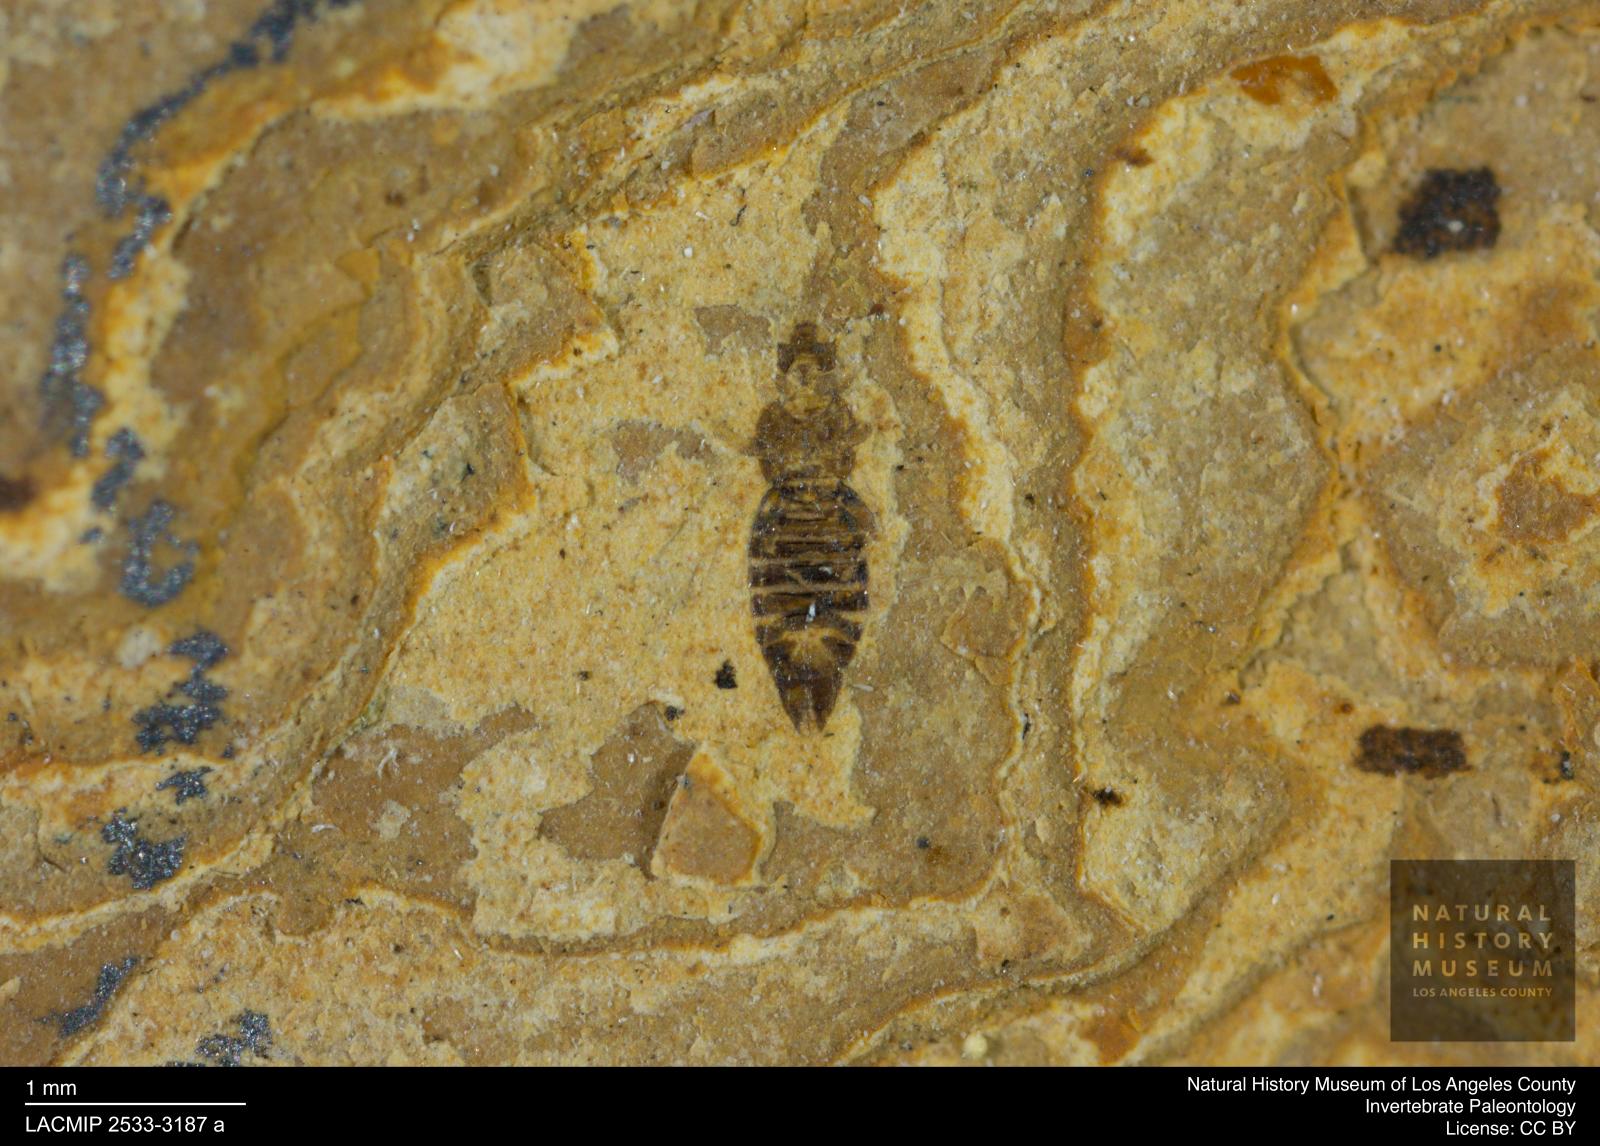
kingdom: Animalia
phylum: Arthropoda
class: Insecta
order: Thysanoptera
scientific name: Thysanoptera
